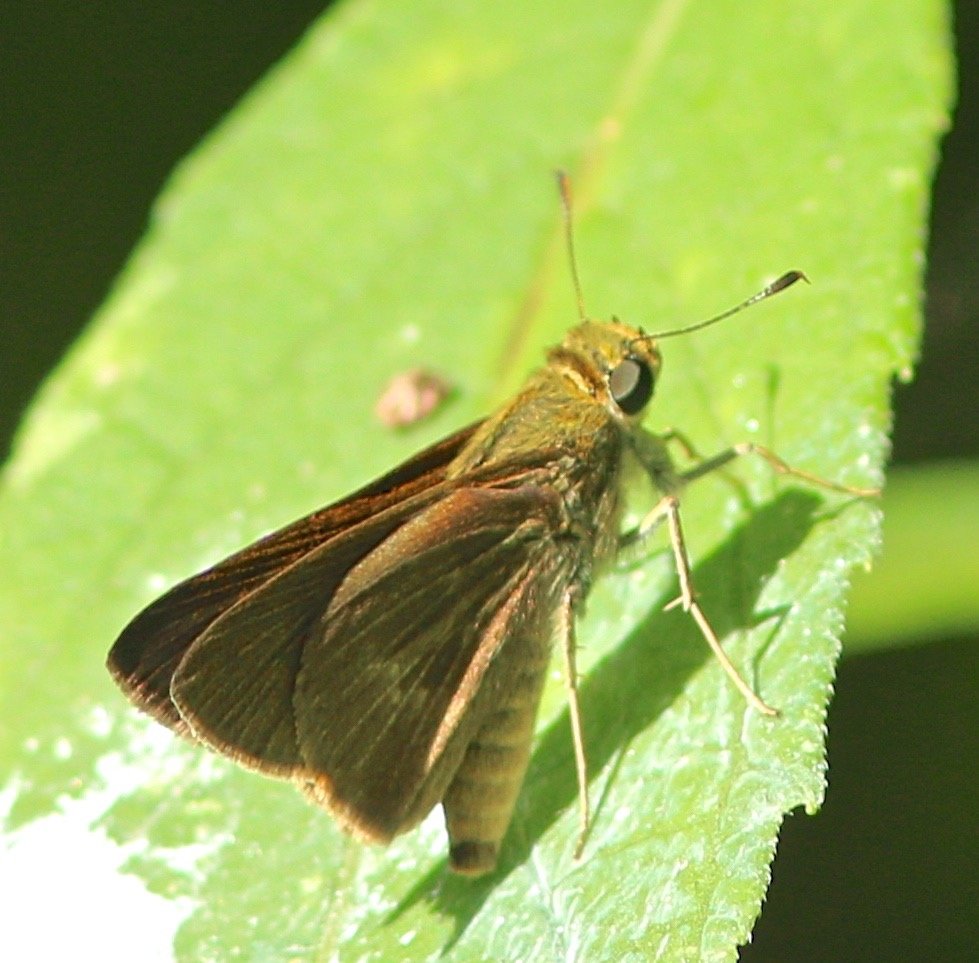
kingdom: Animalia
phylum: Arthropoda
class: Insecta
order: Lepidoptera
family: Hesperiidae
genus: Euphyes
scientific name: Euphyes vestris
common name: Dun Skipper
